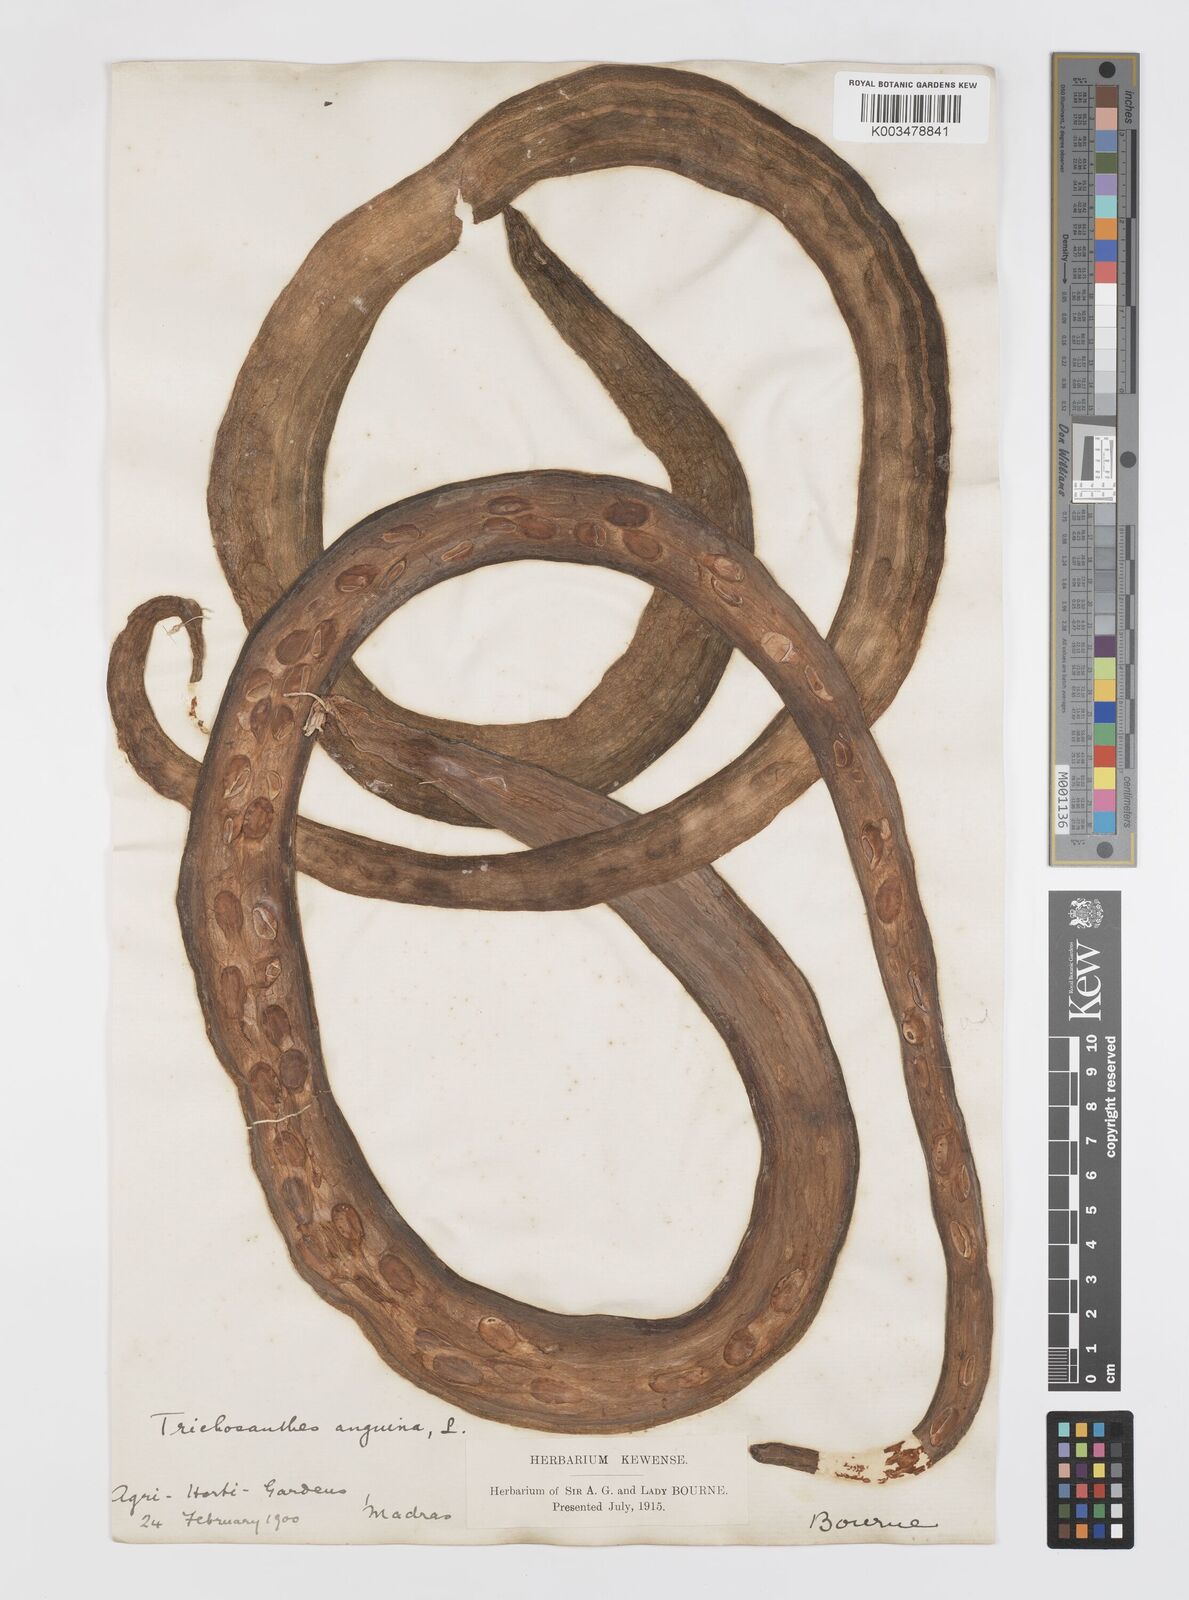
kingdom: Plantae
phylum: Tracheophyta
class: Magnoliopsida
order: Cucurbitales
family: Cucurbitaceae
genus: Trichosanthes
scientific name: Trichosanthes cucumerina
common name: Snakegourd
